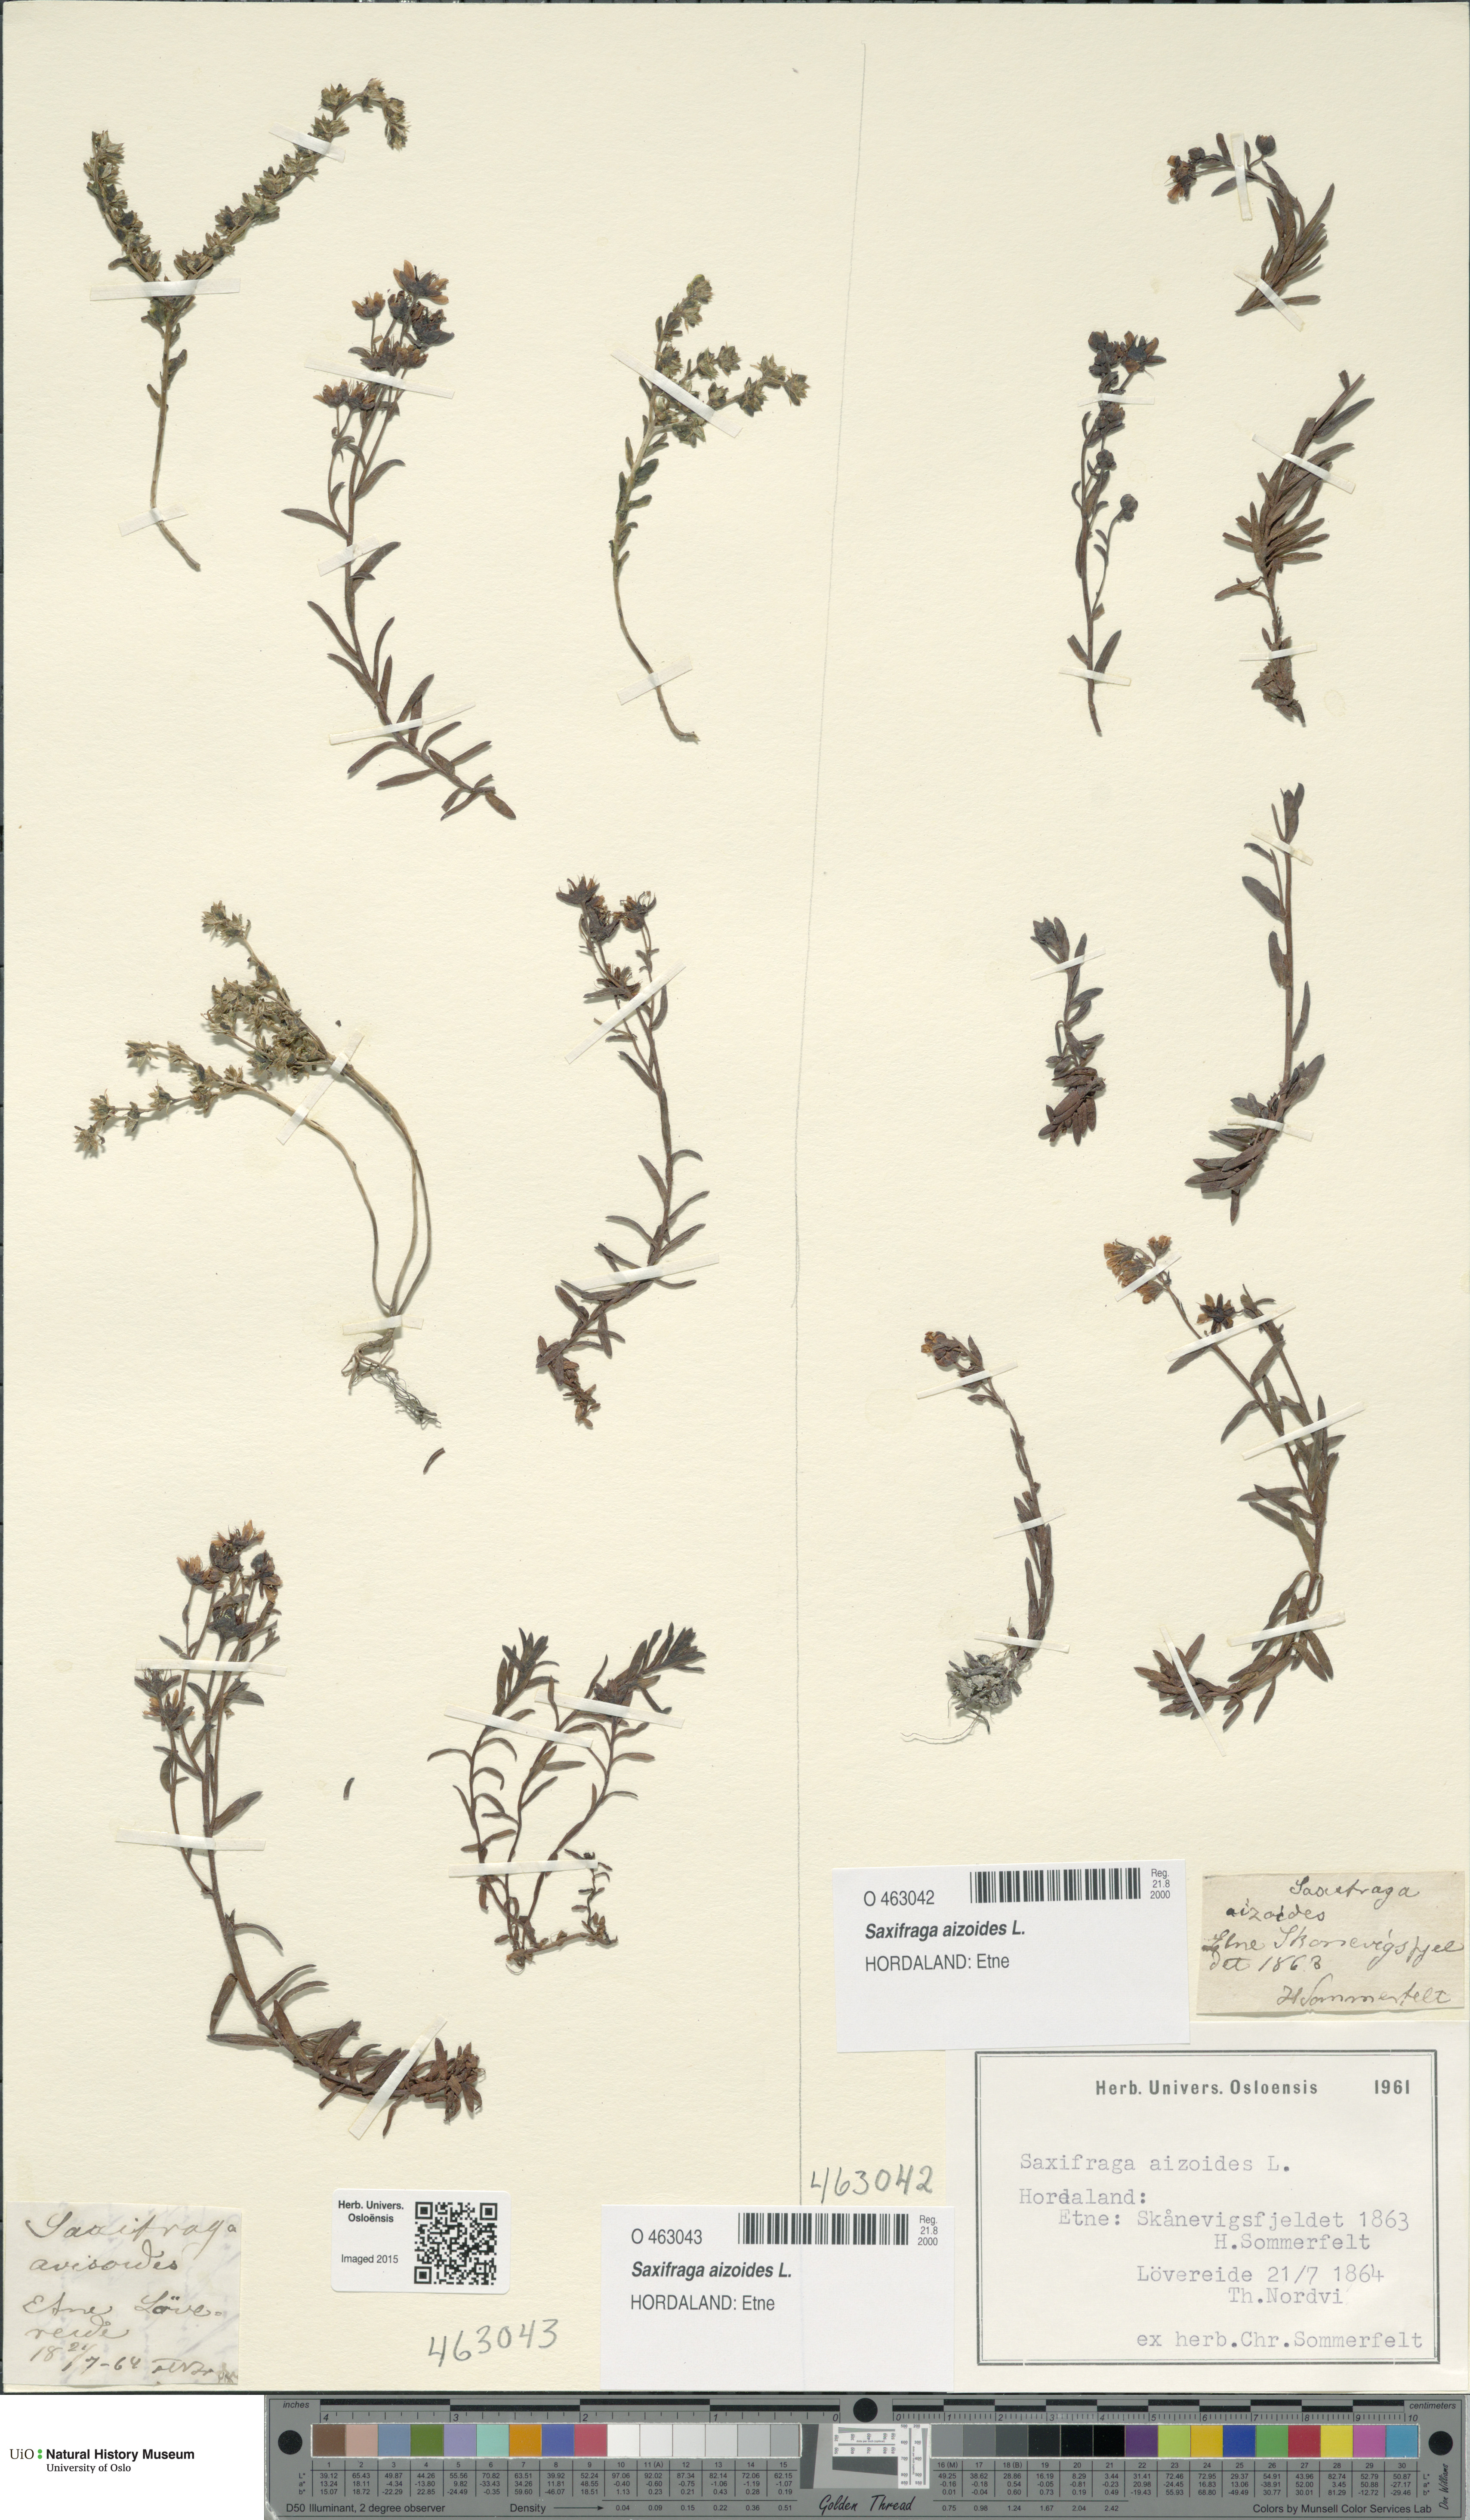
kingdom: Plantae
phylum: Tracheophyta
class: Magnoliopsida
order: Saxifragales
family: Saxifragaceae
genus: Saxifraga
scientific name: Saxifraga aizoides
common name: Yellow mountain saxifrage
